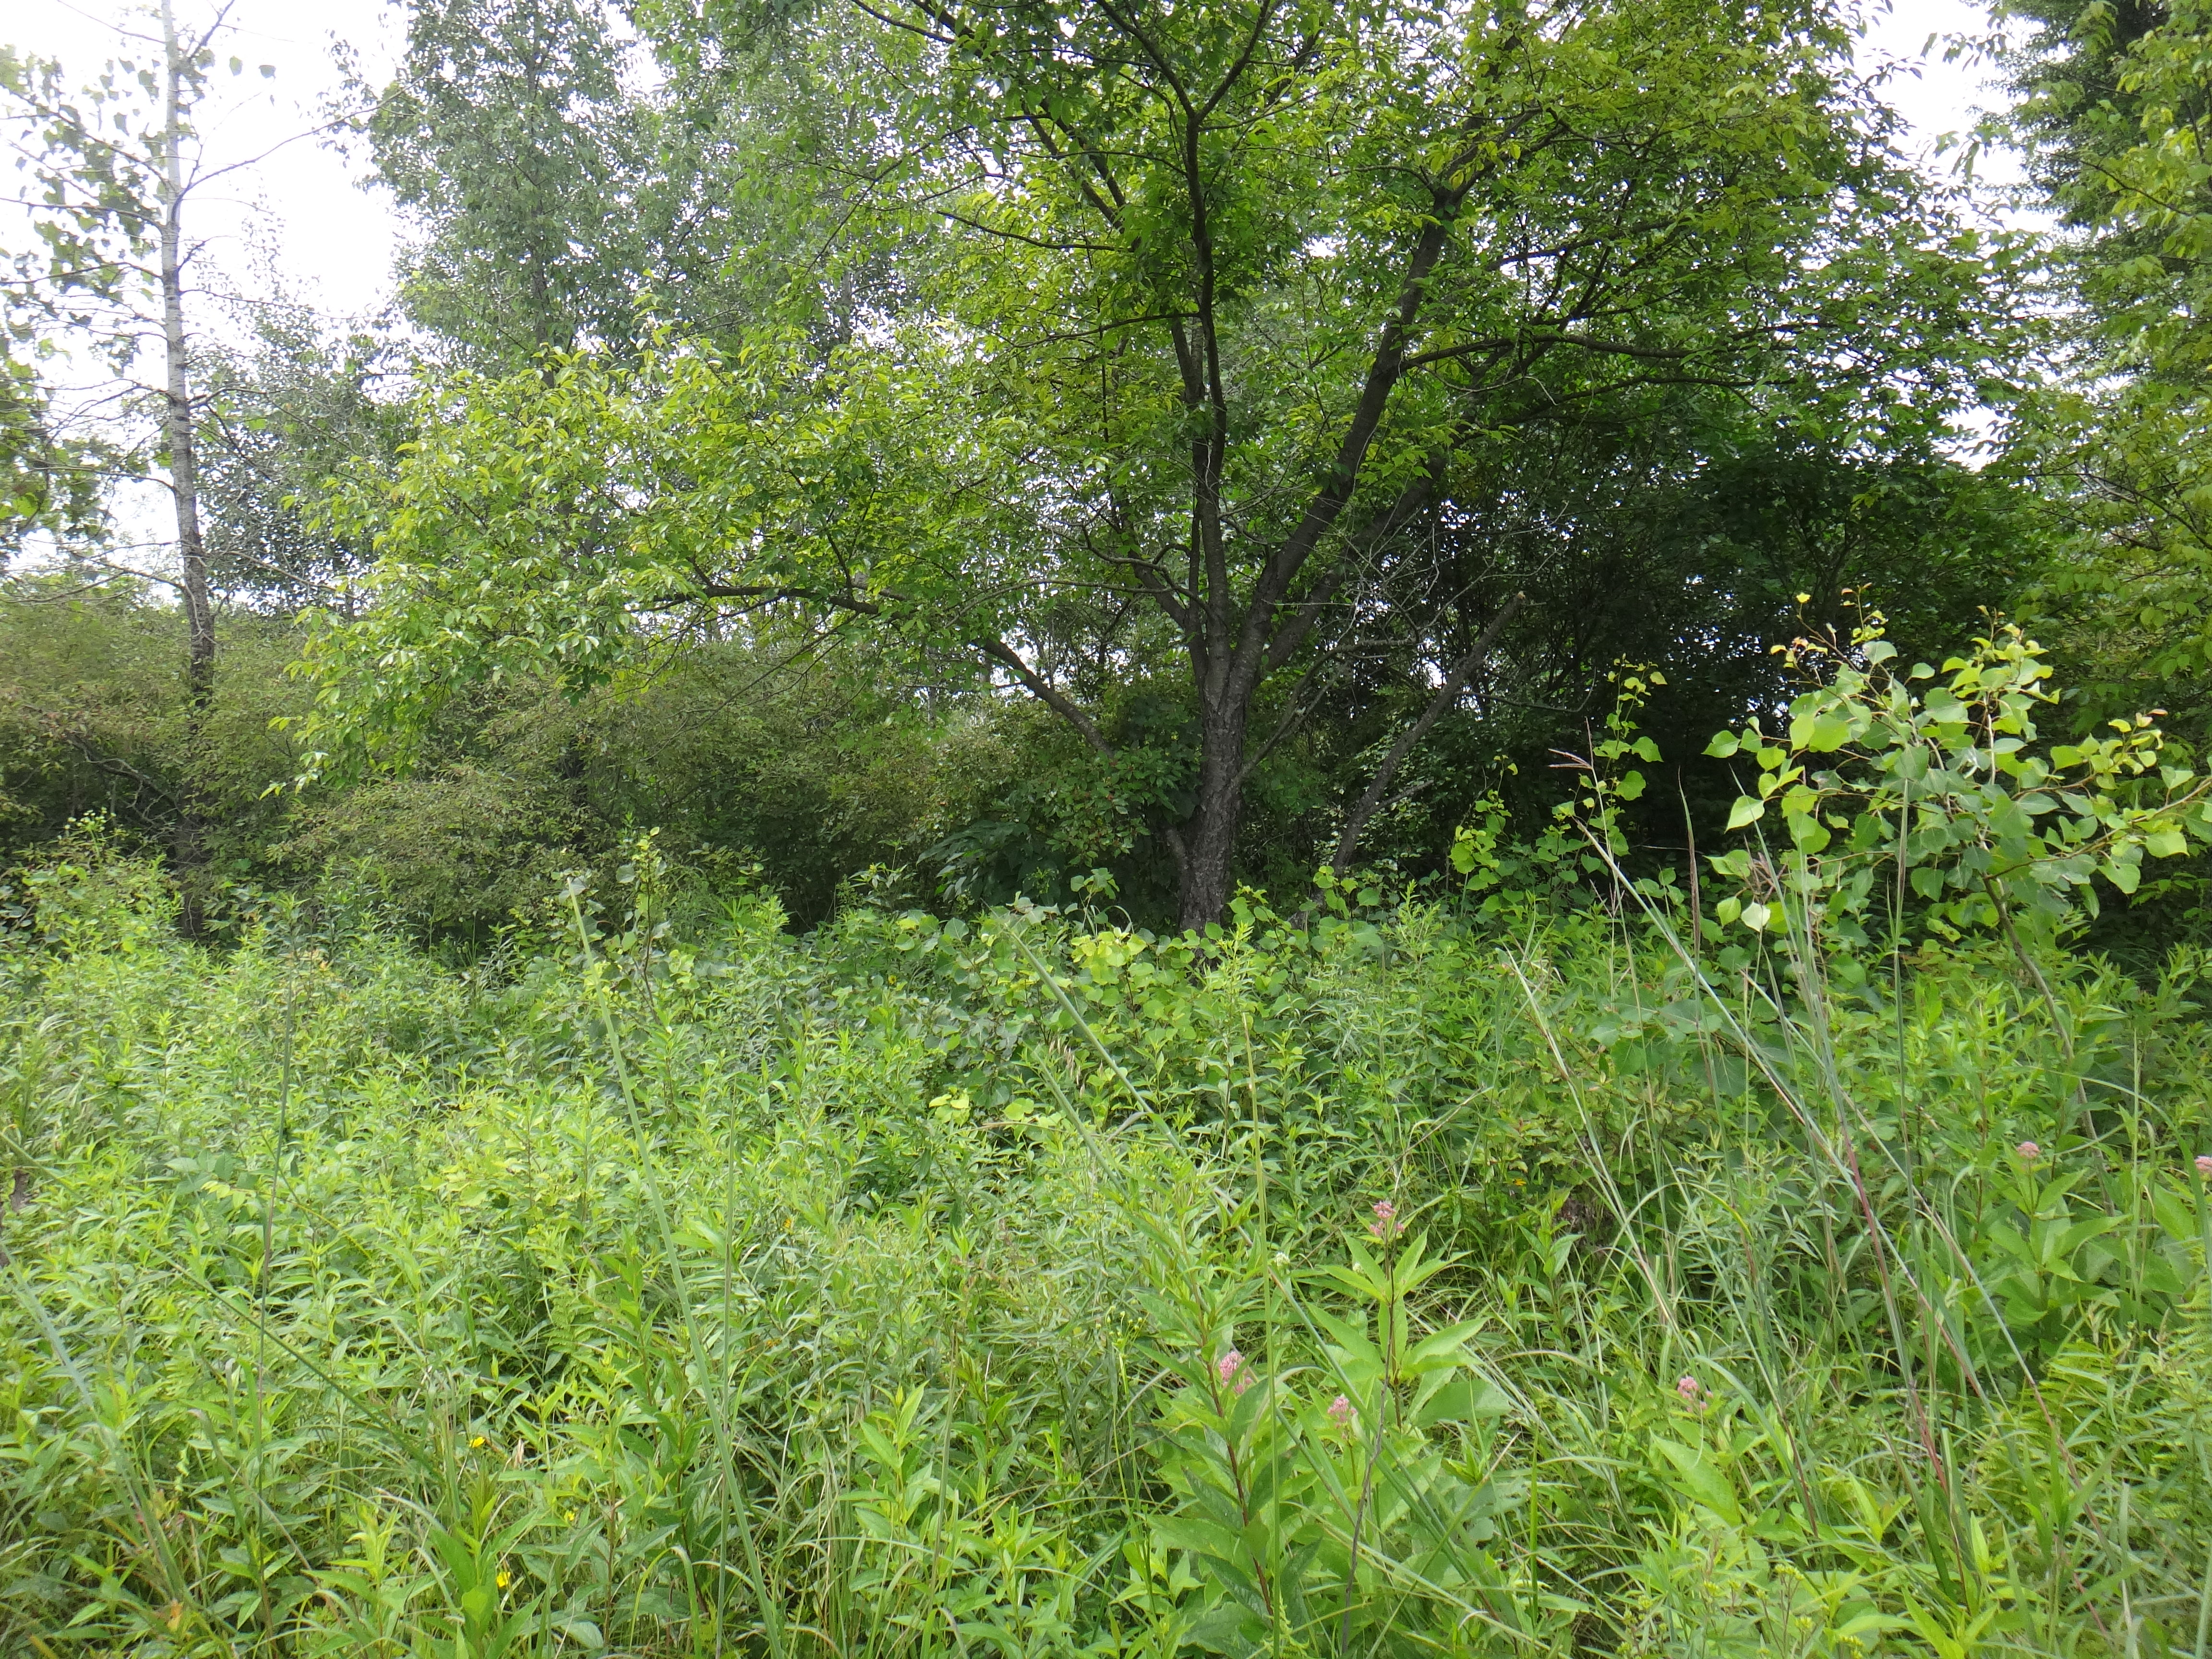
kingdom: Plantae
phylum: Tracheophyta
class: Liliopsida
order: Poales
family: Poaceae
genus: Bromus
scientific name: Bromus ciliatus
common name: Fringe brome
